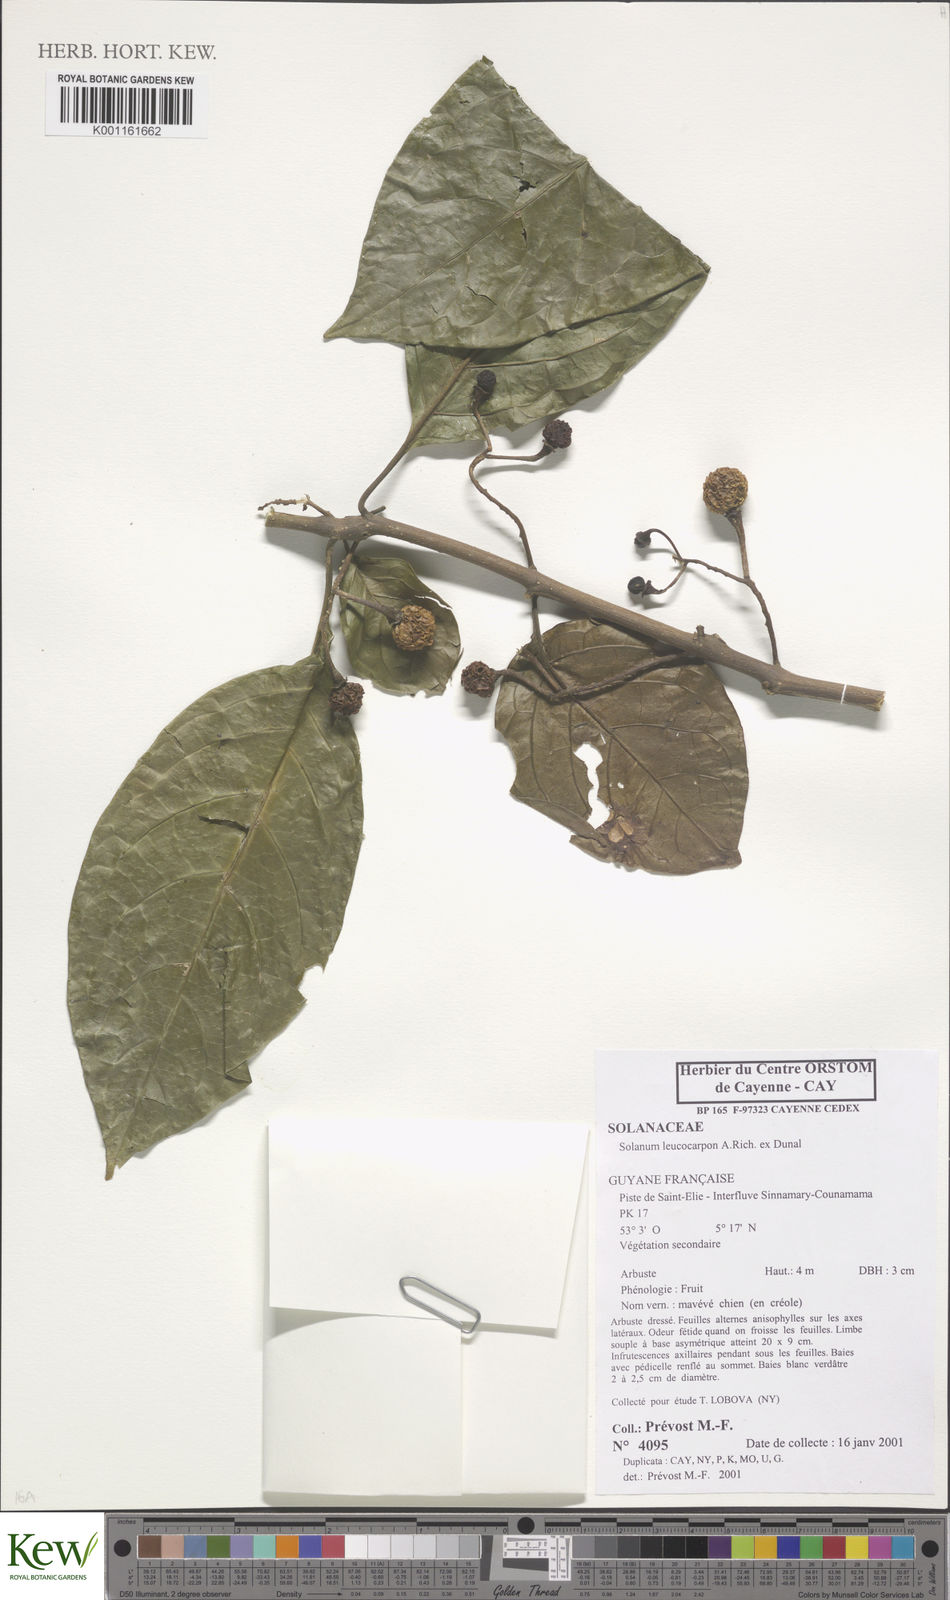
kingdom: Plantae
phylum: Tracheophyta
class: Magnoliopsida
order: Solanales
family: Solanaceae
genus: Solanum
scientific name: Solanum leucocarpon
